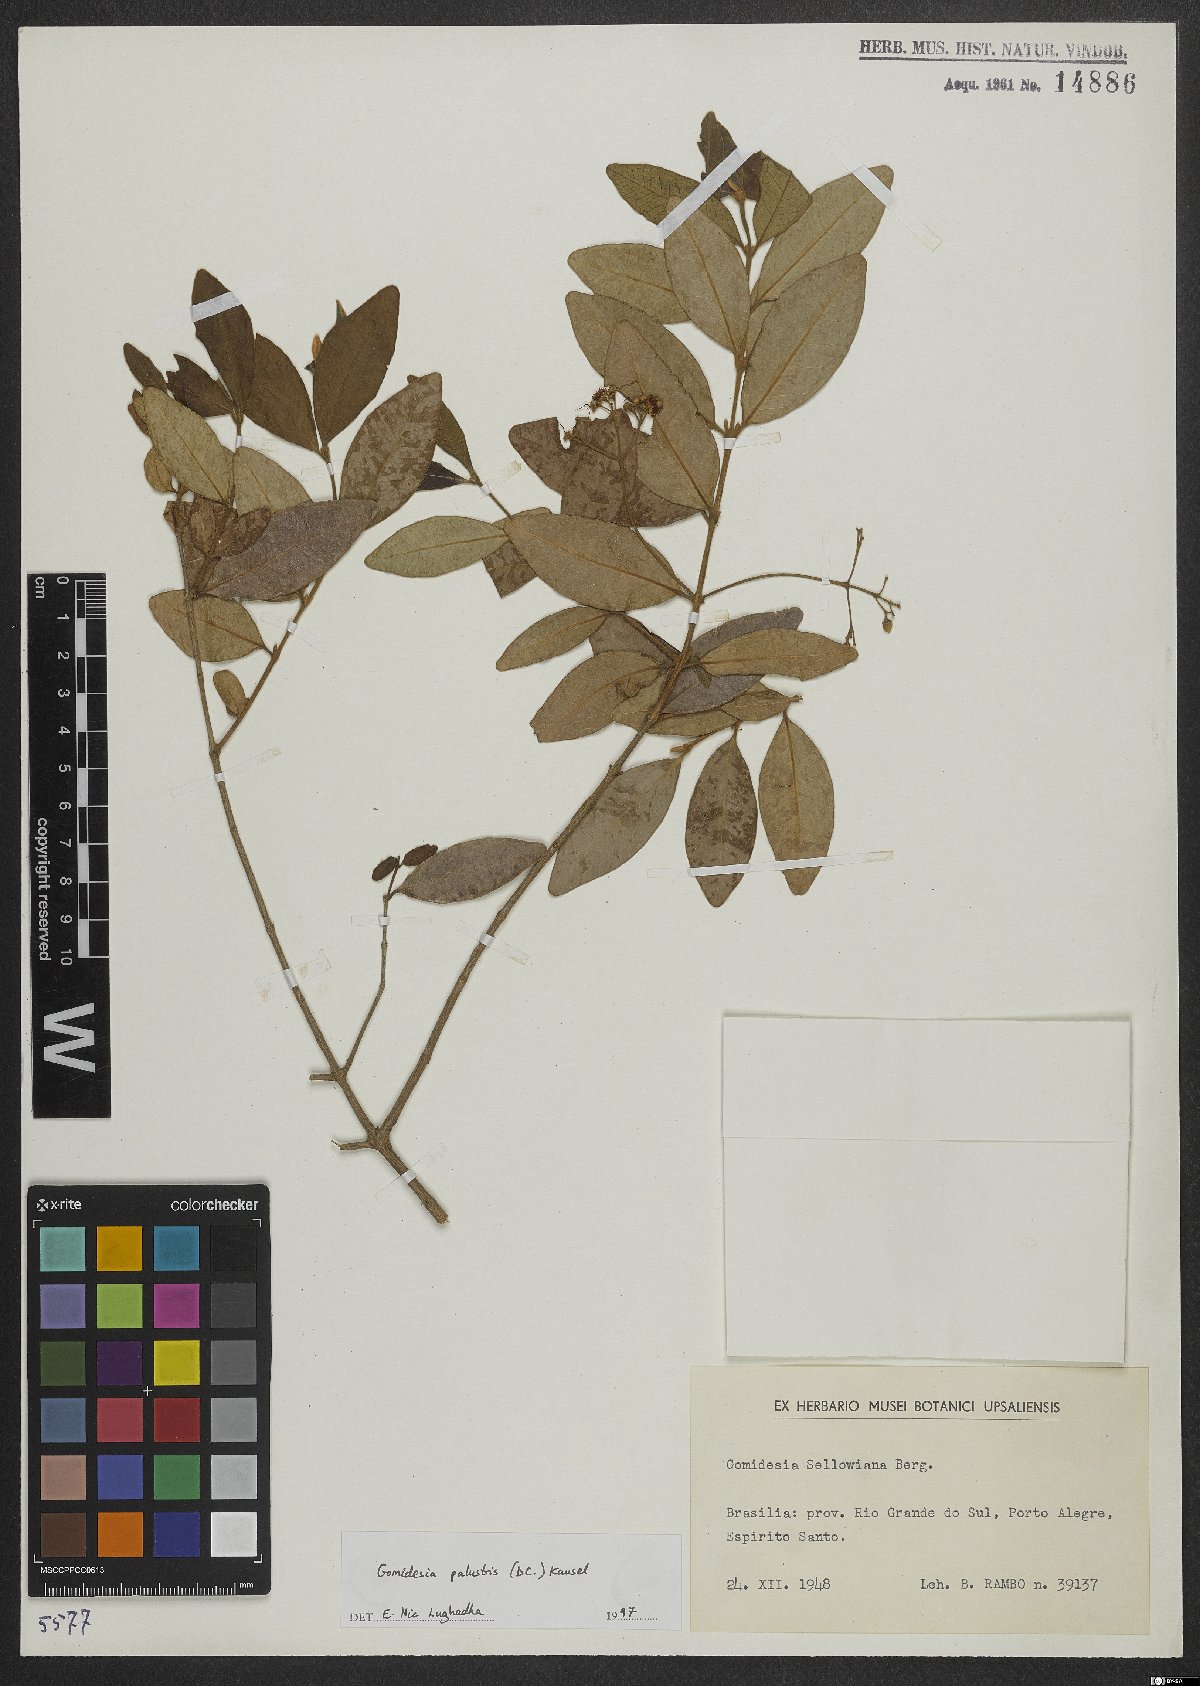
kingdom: Plantae
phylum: Tracheophyta
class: Magnoliopsida
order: Myrtales
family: Myrtaceae
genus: Myrcia
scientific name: Myrcia palustris
